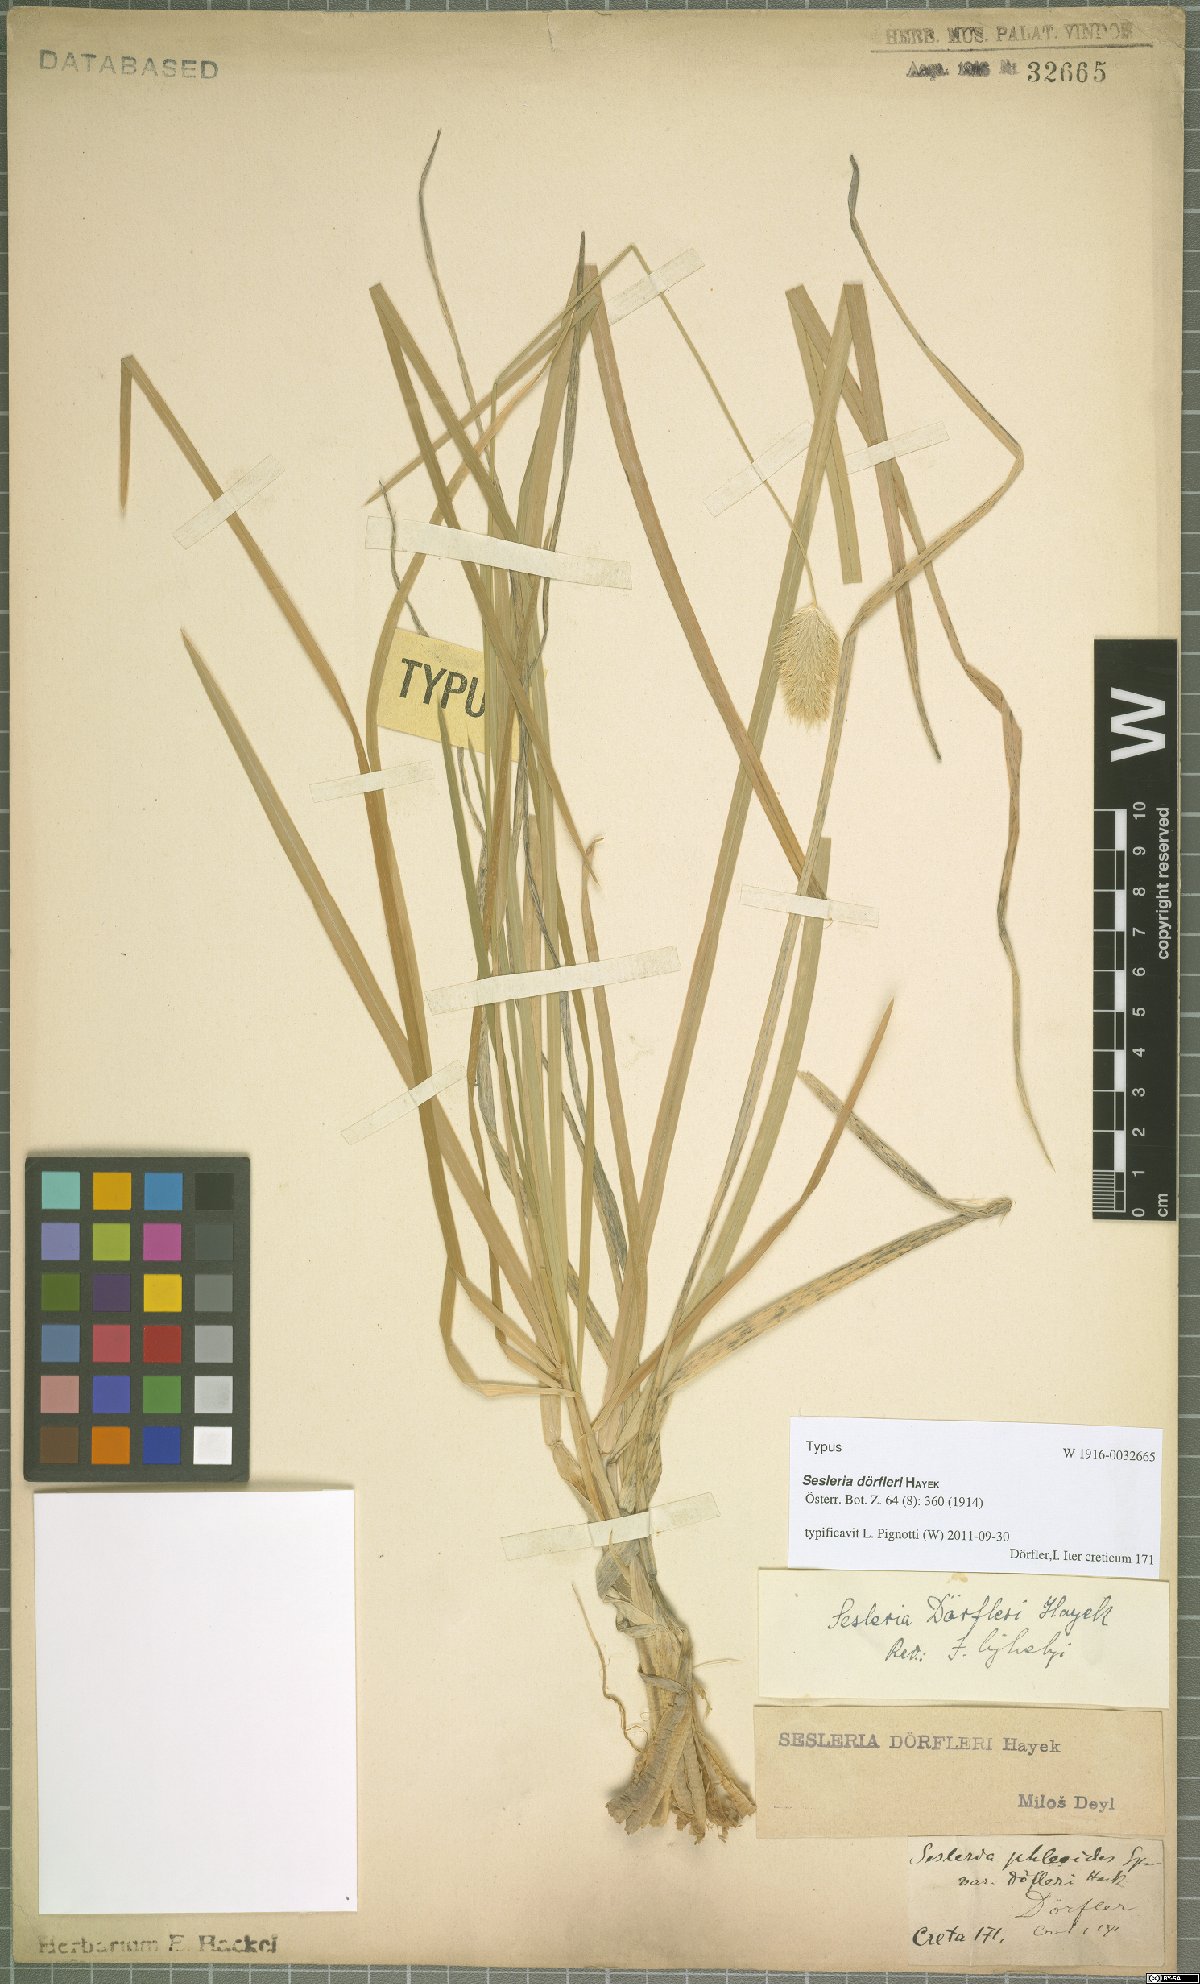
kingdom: Plantae
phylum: Tracheophyta
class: Liliopsida
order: Poales
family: Poaceae
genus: Sesleria
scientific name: Sesleria doerfleri
